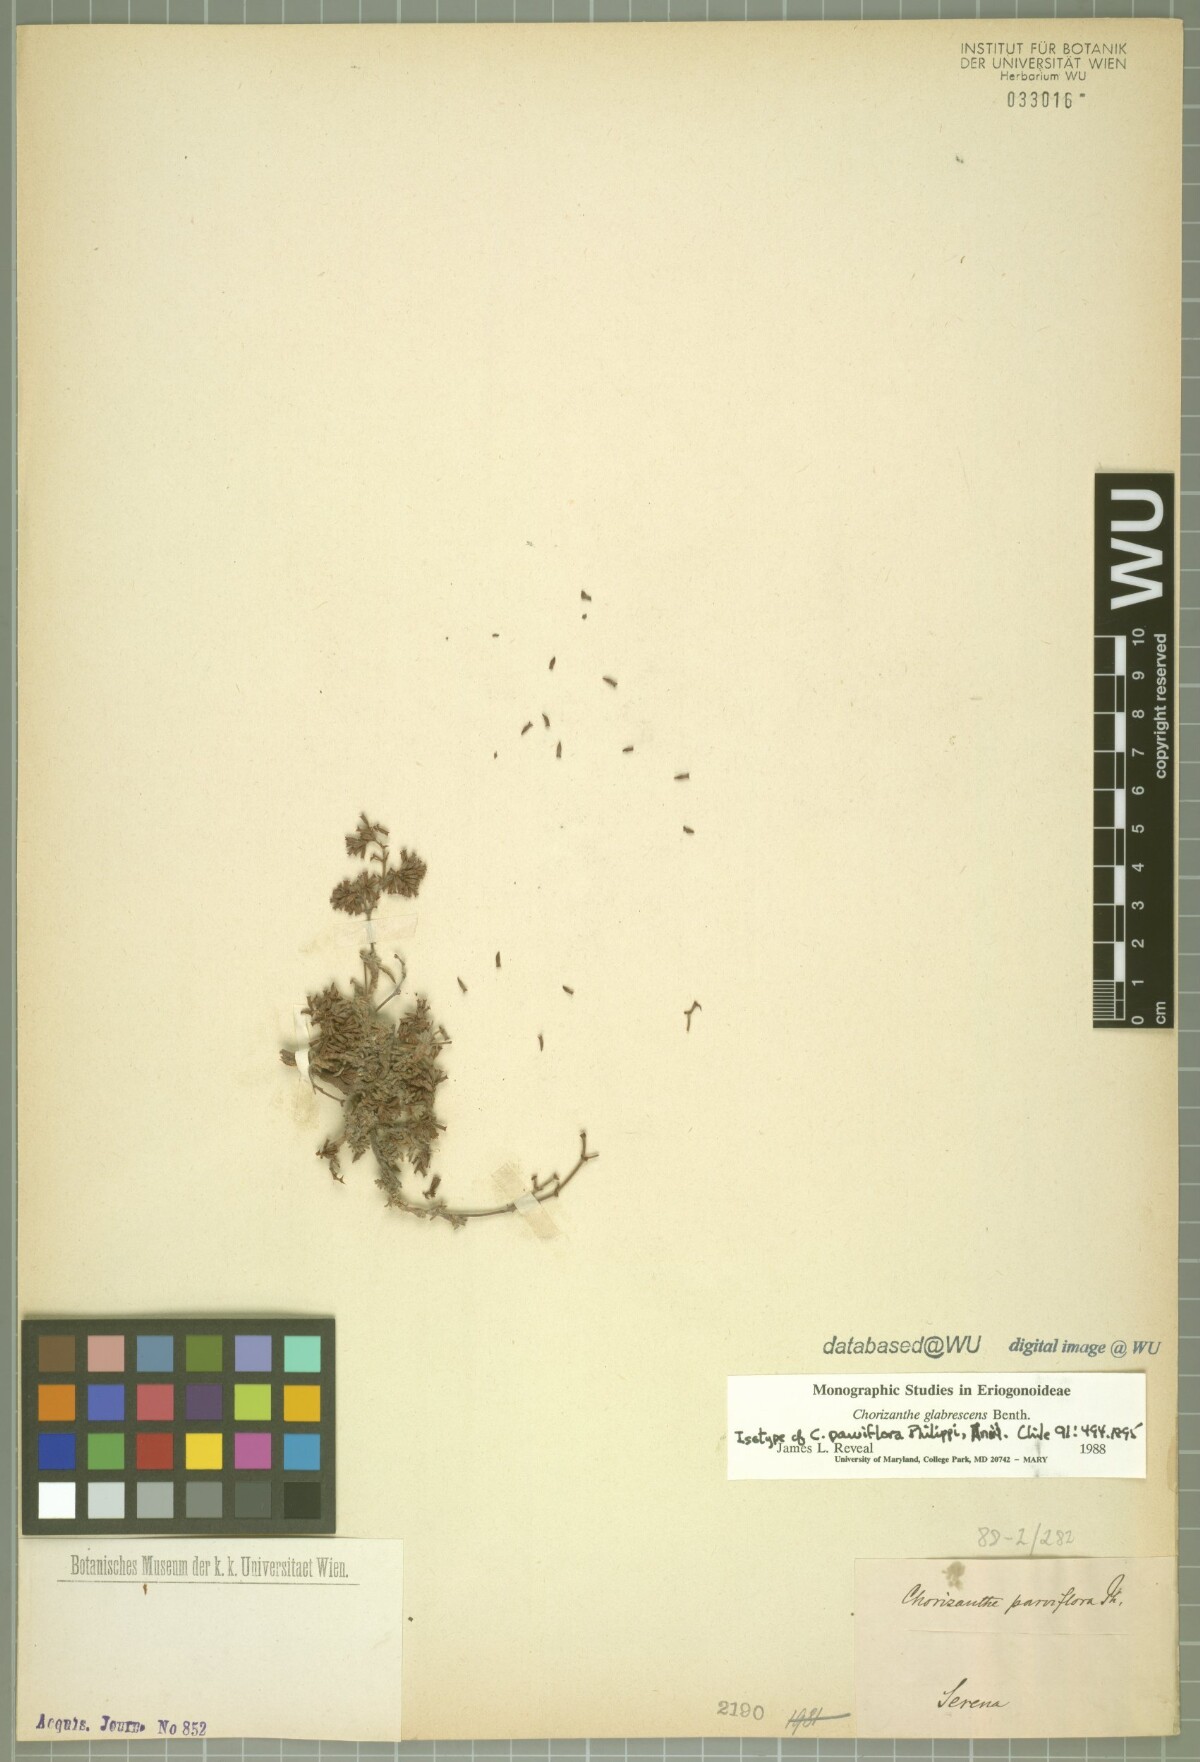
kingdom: Plantae
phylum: Tracheophyta
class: Magnoliopsida
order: Caryophyllales
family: Polygonaceae
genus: Chorizanthe
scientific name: Chorizanthe dasyantha
